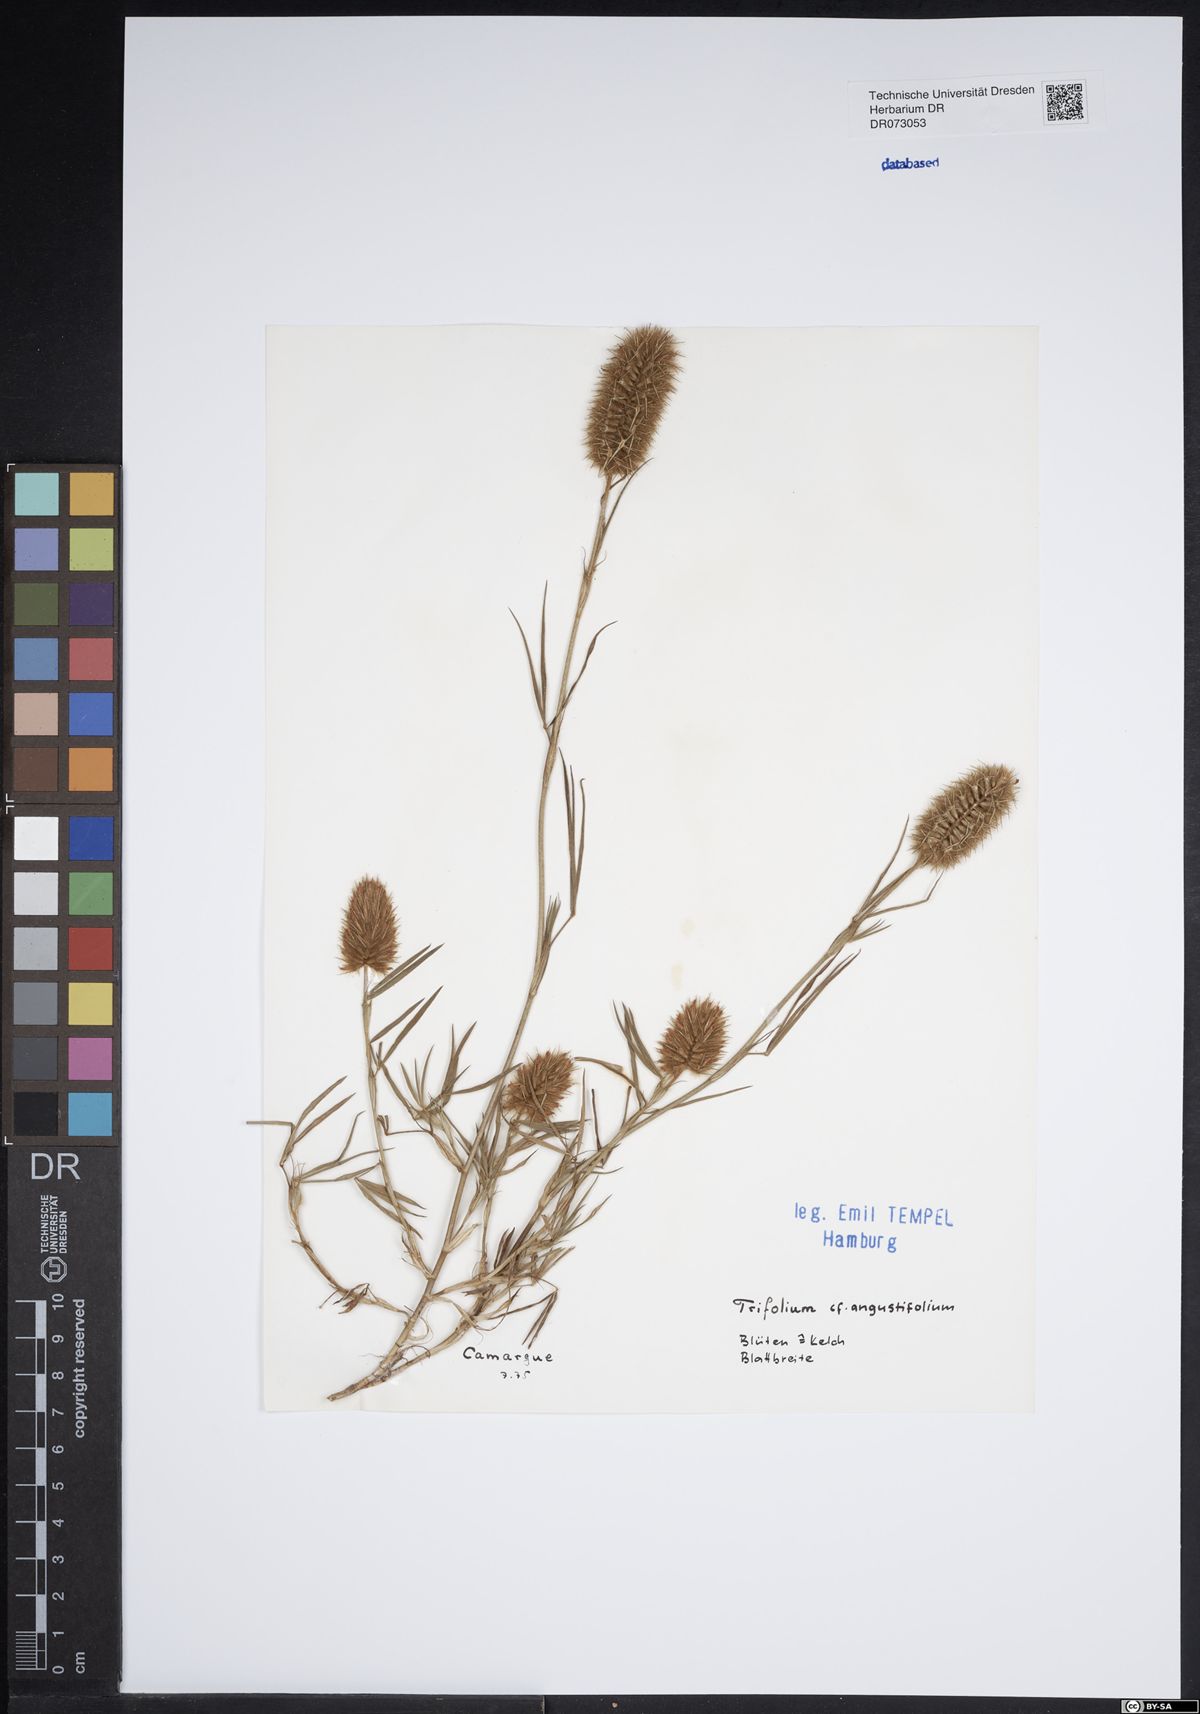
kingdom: Plantae
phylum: Tracheophyta
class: Magnoliopsida
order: Fabales
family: Fabaceae
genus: Trifolium
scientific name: Trifolium angustifolium
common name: Narrow clover
